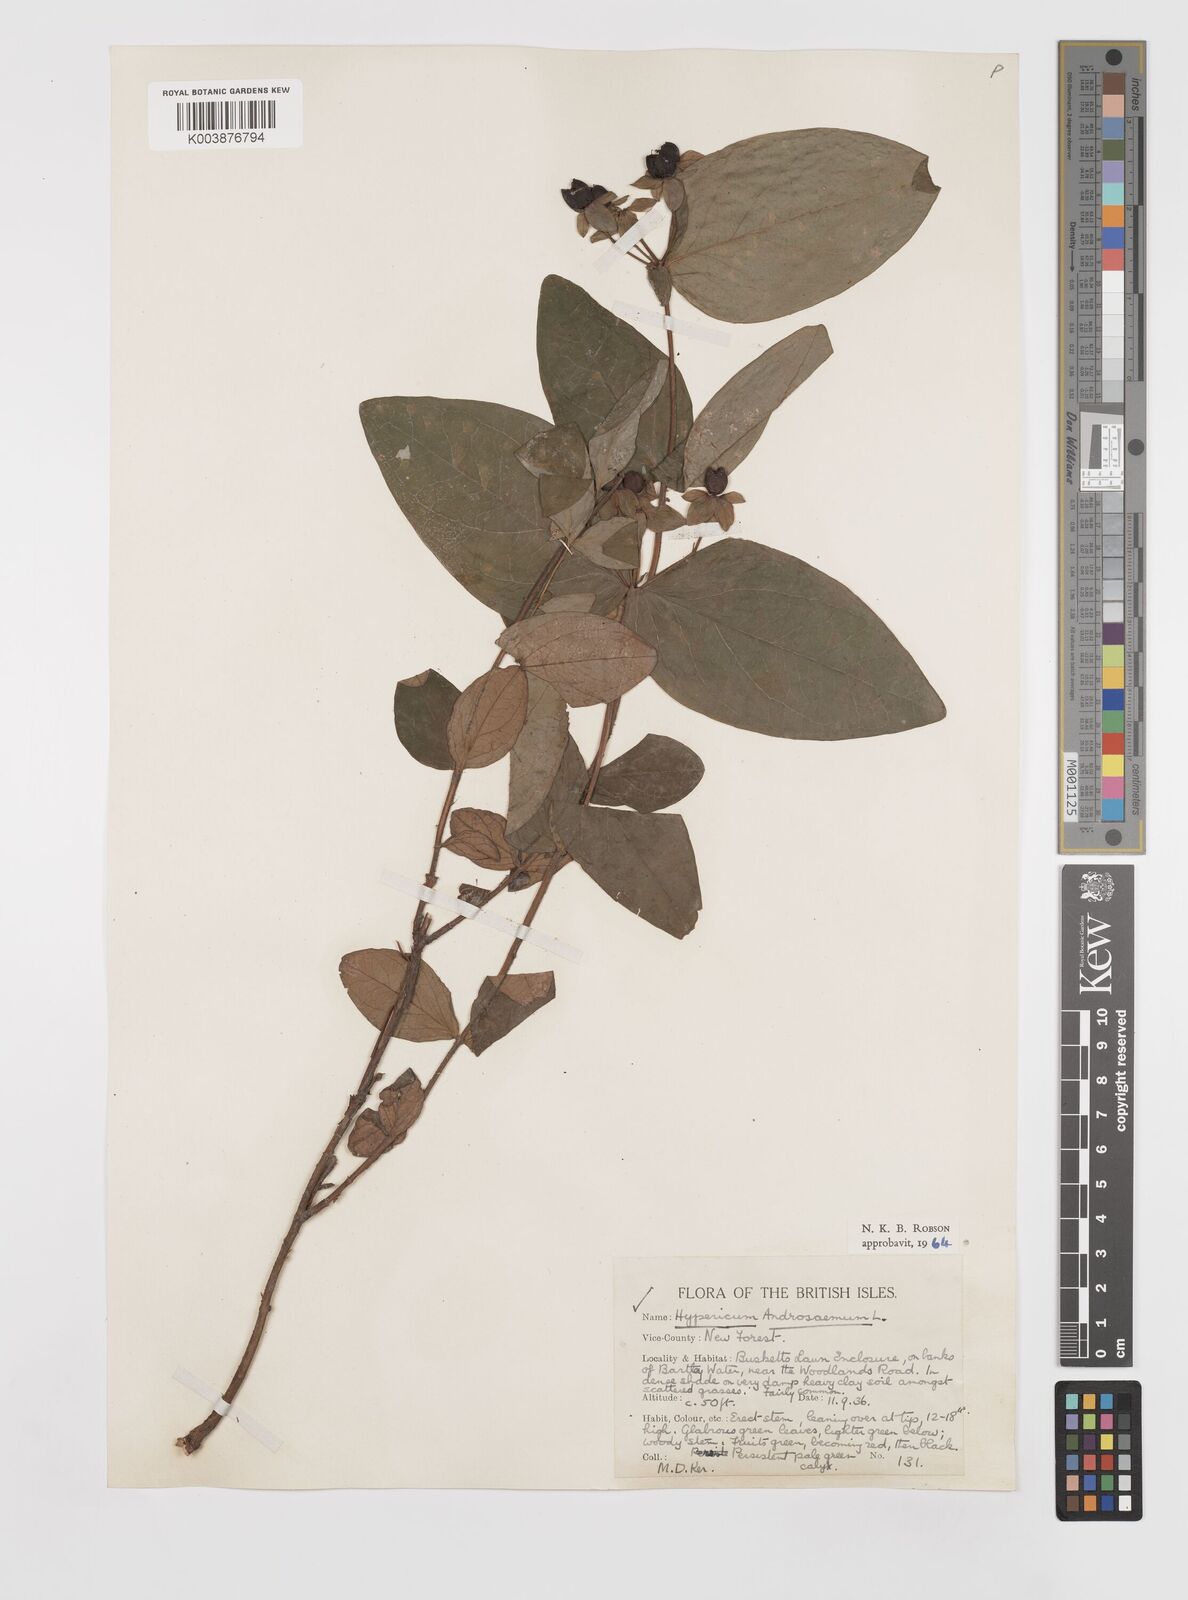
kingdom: Plantae
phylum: Tracheophyta
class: Magnoliopsida
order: Malpighiales
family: Hypericaceae
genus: Hypericum
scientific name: Hypericum androsaemum
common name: Sweet-amber
